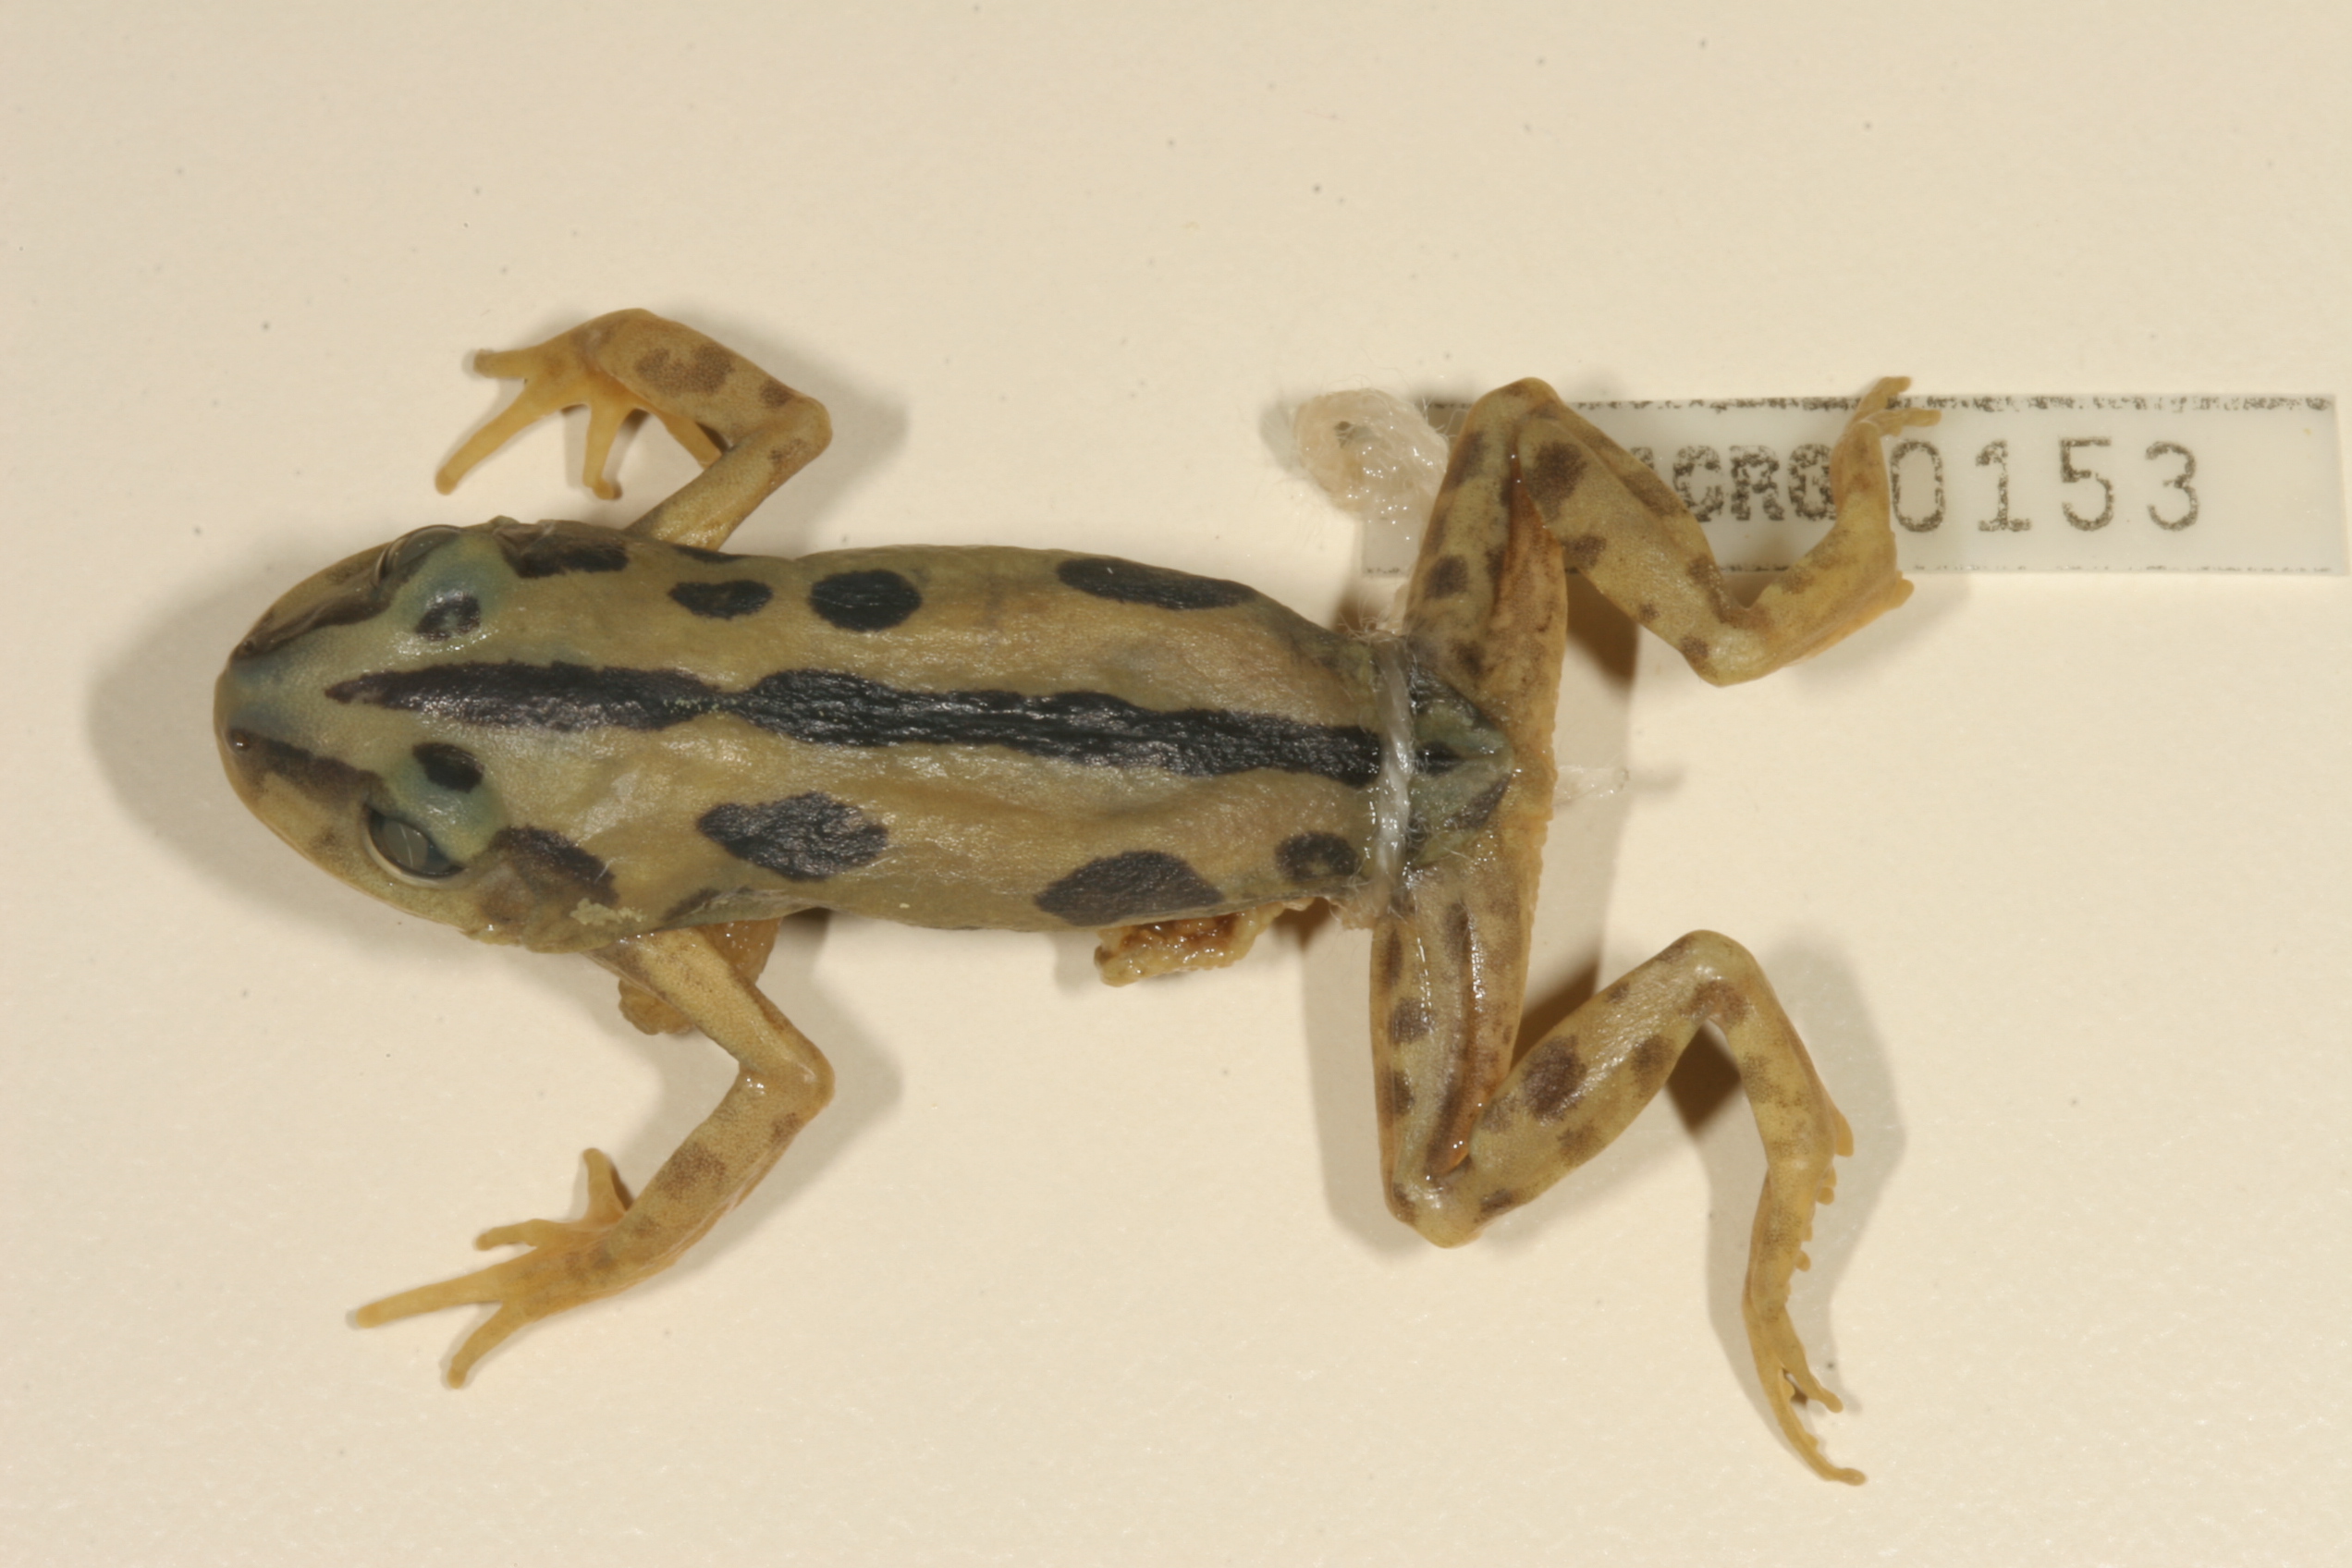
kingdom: Animalia
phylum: Chordata
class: Amphibia
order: Anura
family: Hyperoliidae
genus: Kassina
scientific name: Kassina senegalensis
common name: Senegal land frog
